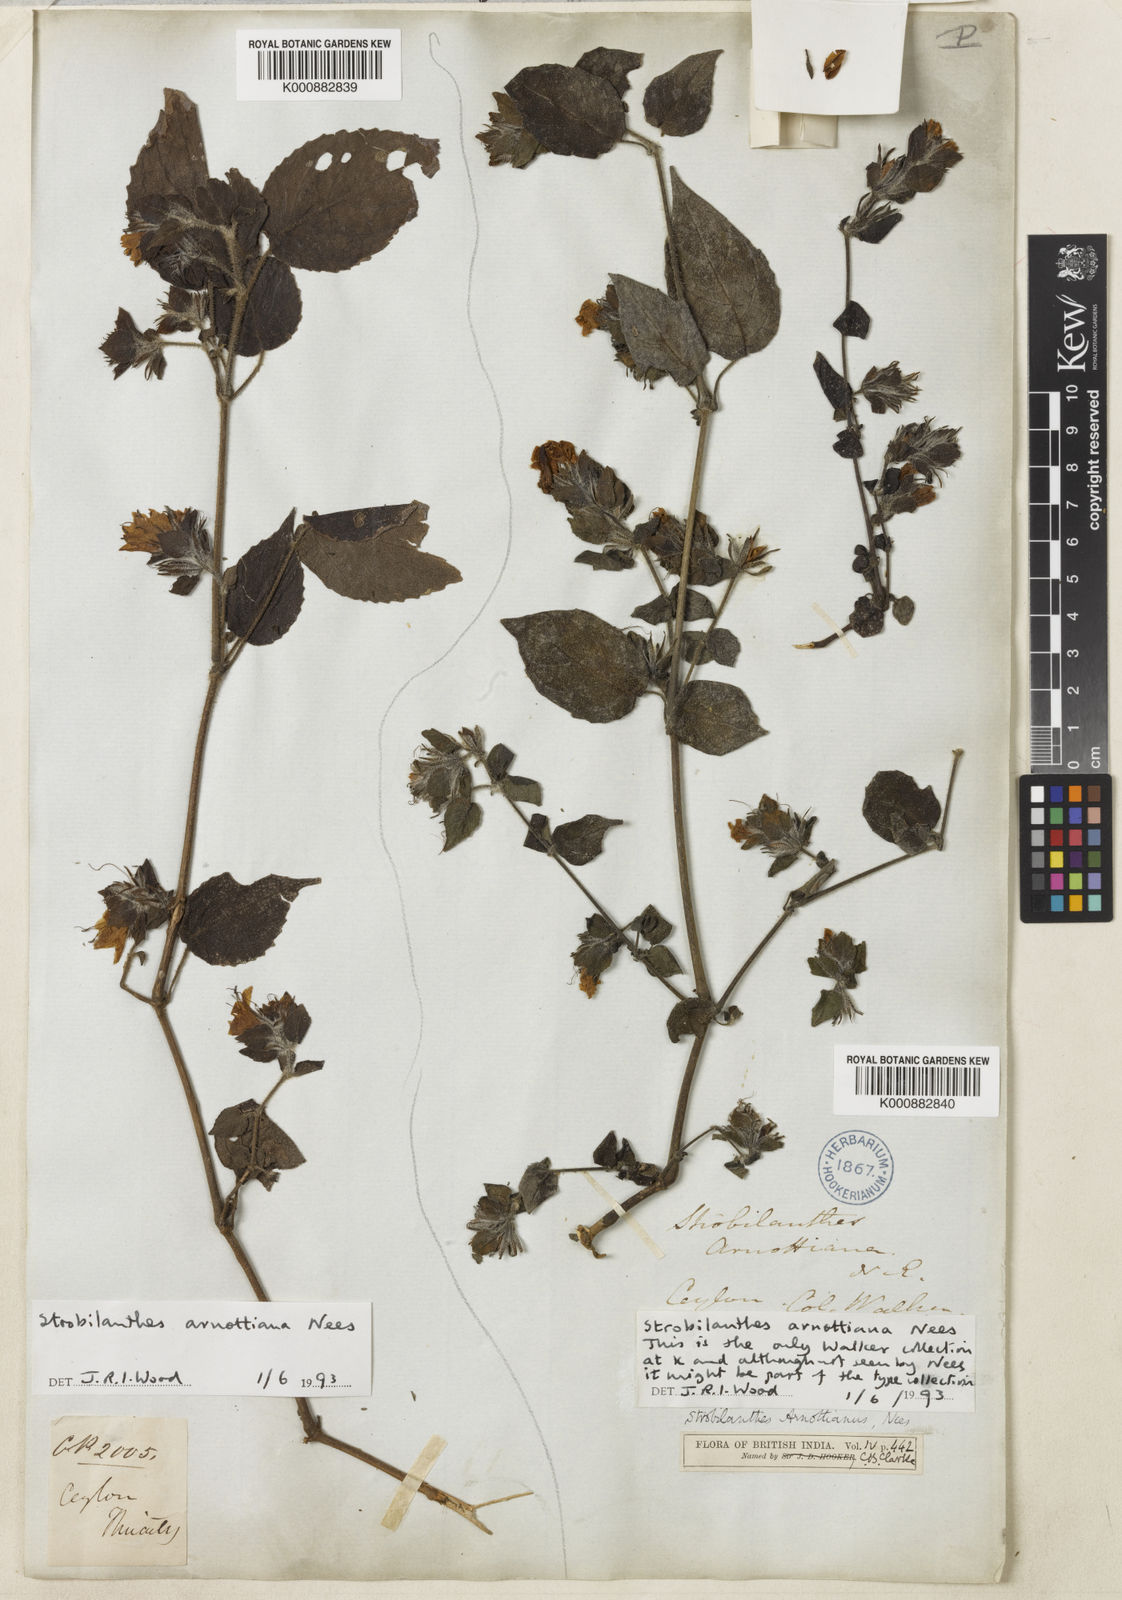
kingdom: Plantae
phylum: Tracheophyta
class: Magnoliopsida
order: Lamiales
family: Acanthaceae
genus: Strobilanthes
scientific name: Strobilanthes arnottiana
